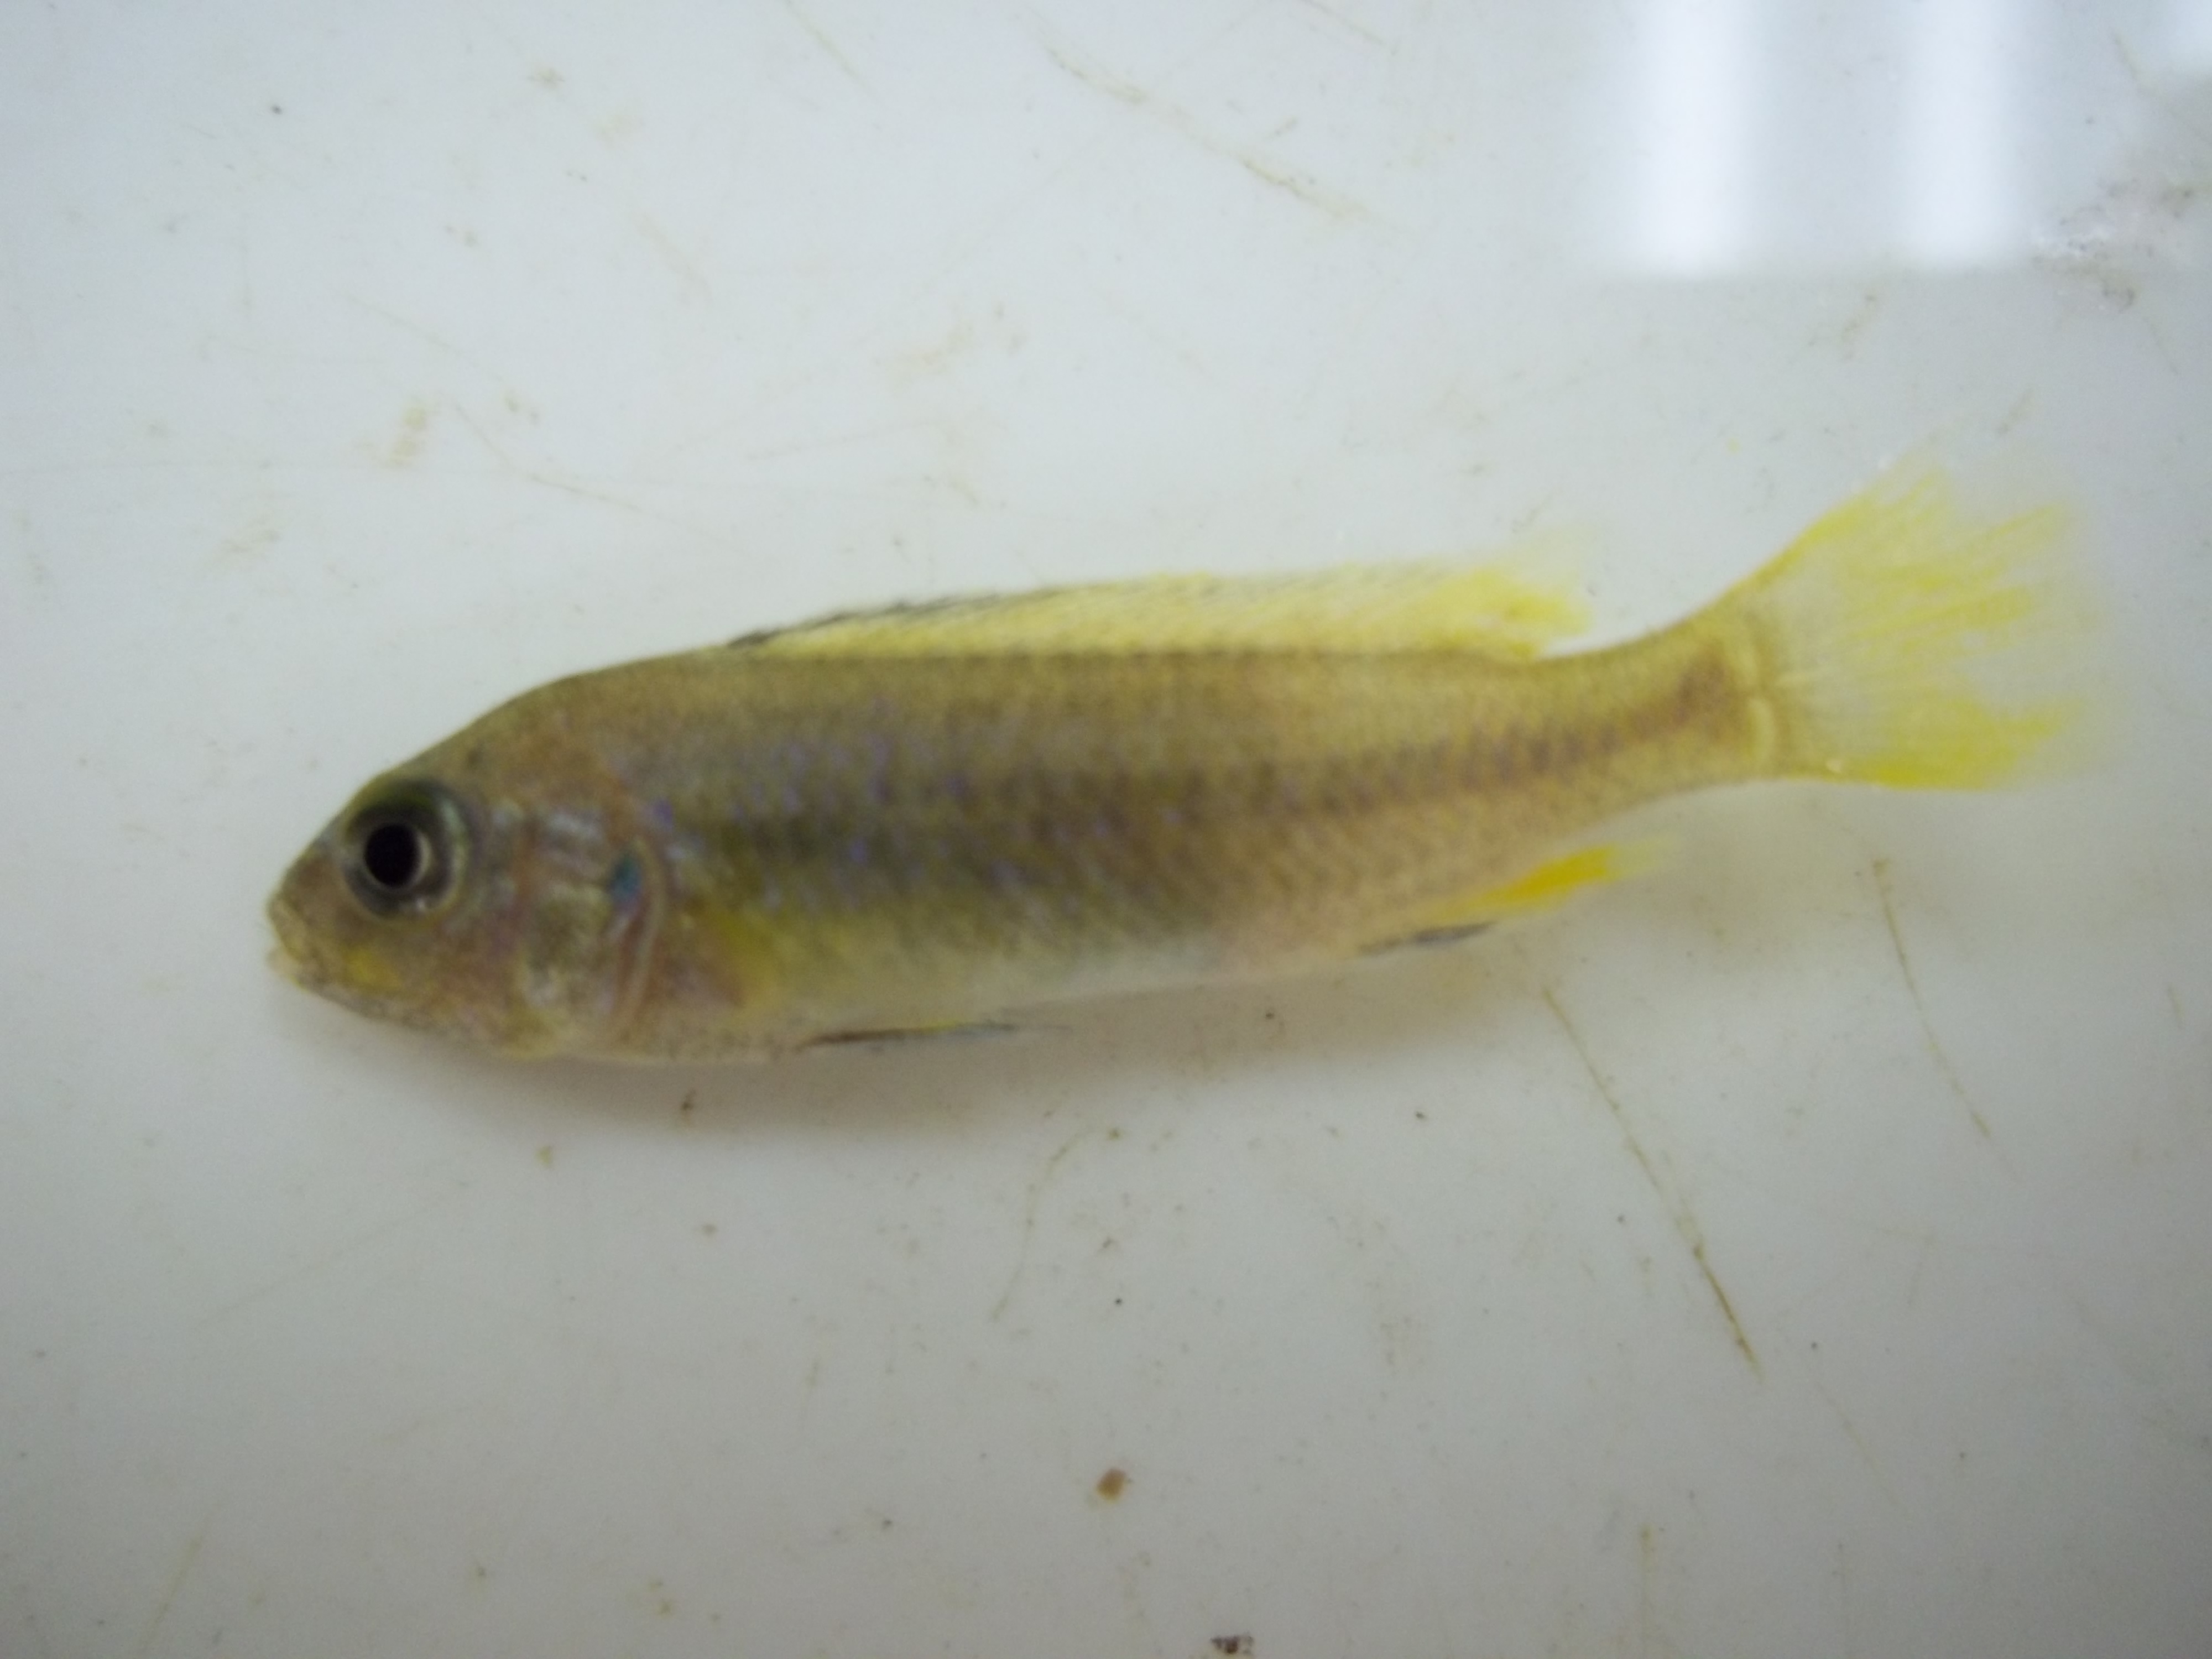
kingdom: Animalia
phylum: Chordata
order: Perciformes
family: Cichlidae
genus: Maylandia
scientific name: Maylandia hajomaylandi
